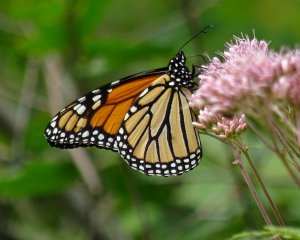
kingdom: Animalia
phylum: Arthropoda
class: Insecta
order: Lepidoptera
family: Nymphalidae
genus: Danaus
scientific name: Danaus plexippus
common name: Monarch
